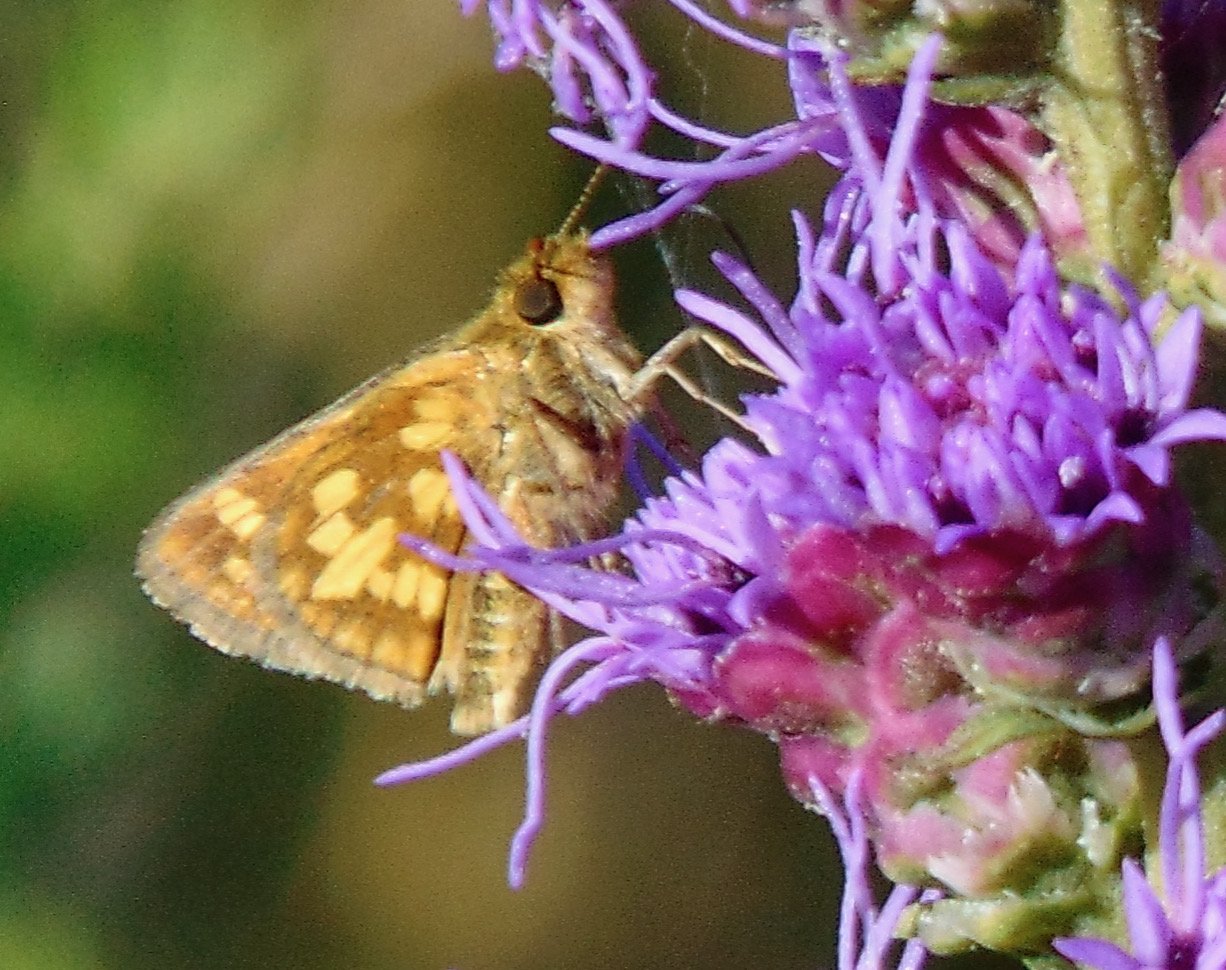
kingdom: Animalia
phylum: Arthropoda
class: Insecta
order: Lepidoptera
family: Hesperiidae
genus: Polites
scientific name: Polites coras
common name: Peck's Skipper
